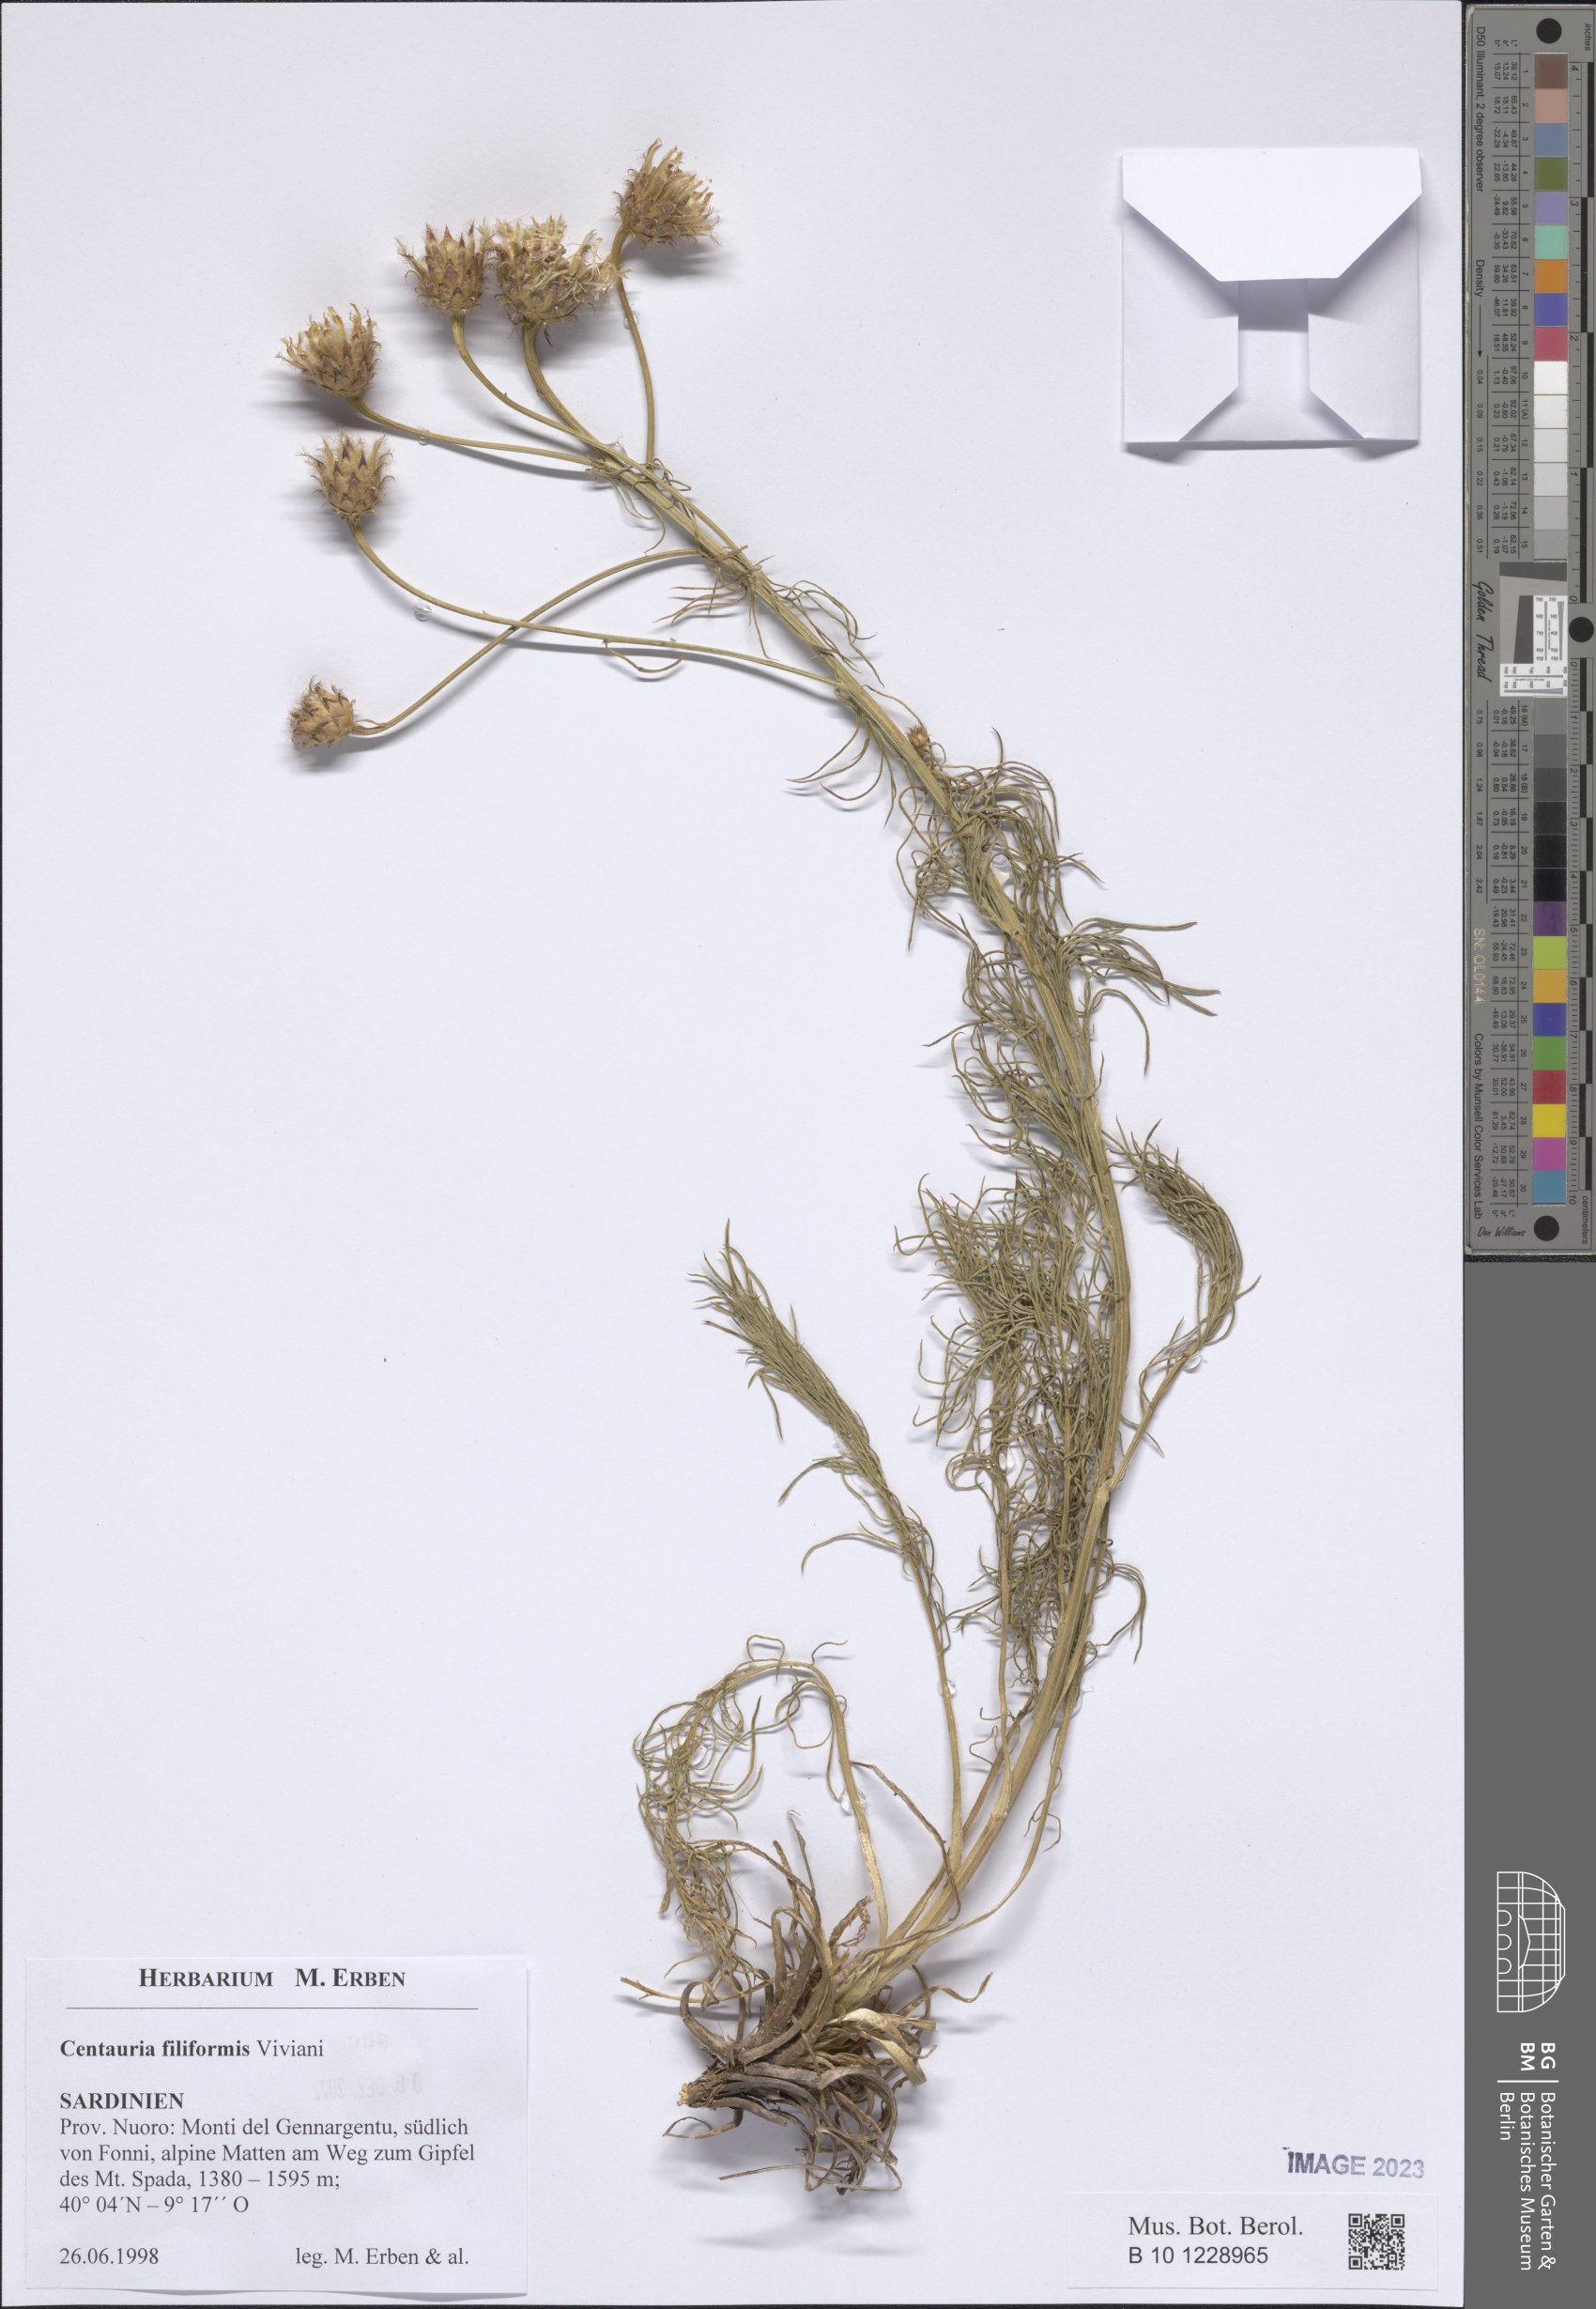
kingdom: Plantae
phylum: Tracheophyta
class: Magnoliopsida
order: Asterales
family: Asteraceae
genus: Centaurea
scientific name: Centaurea filiformis
